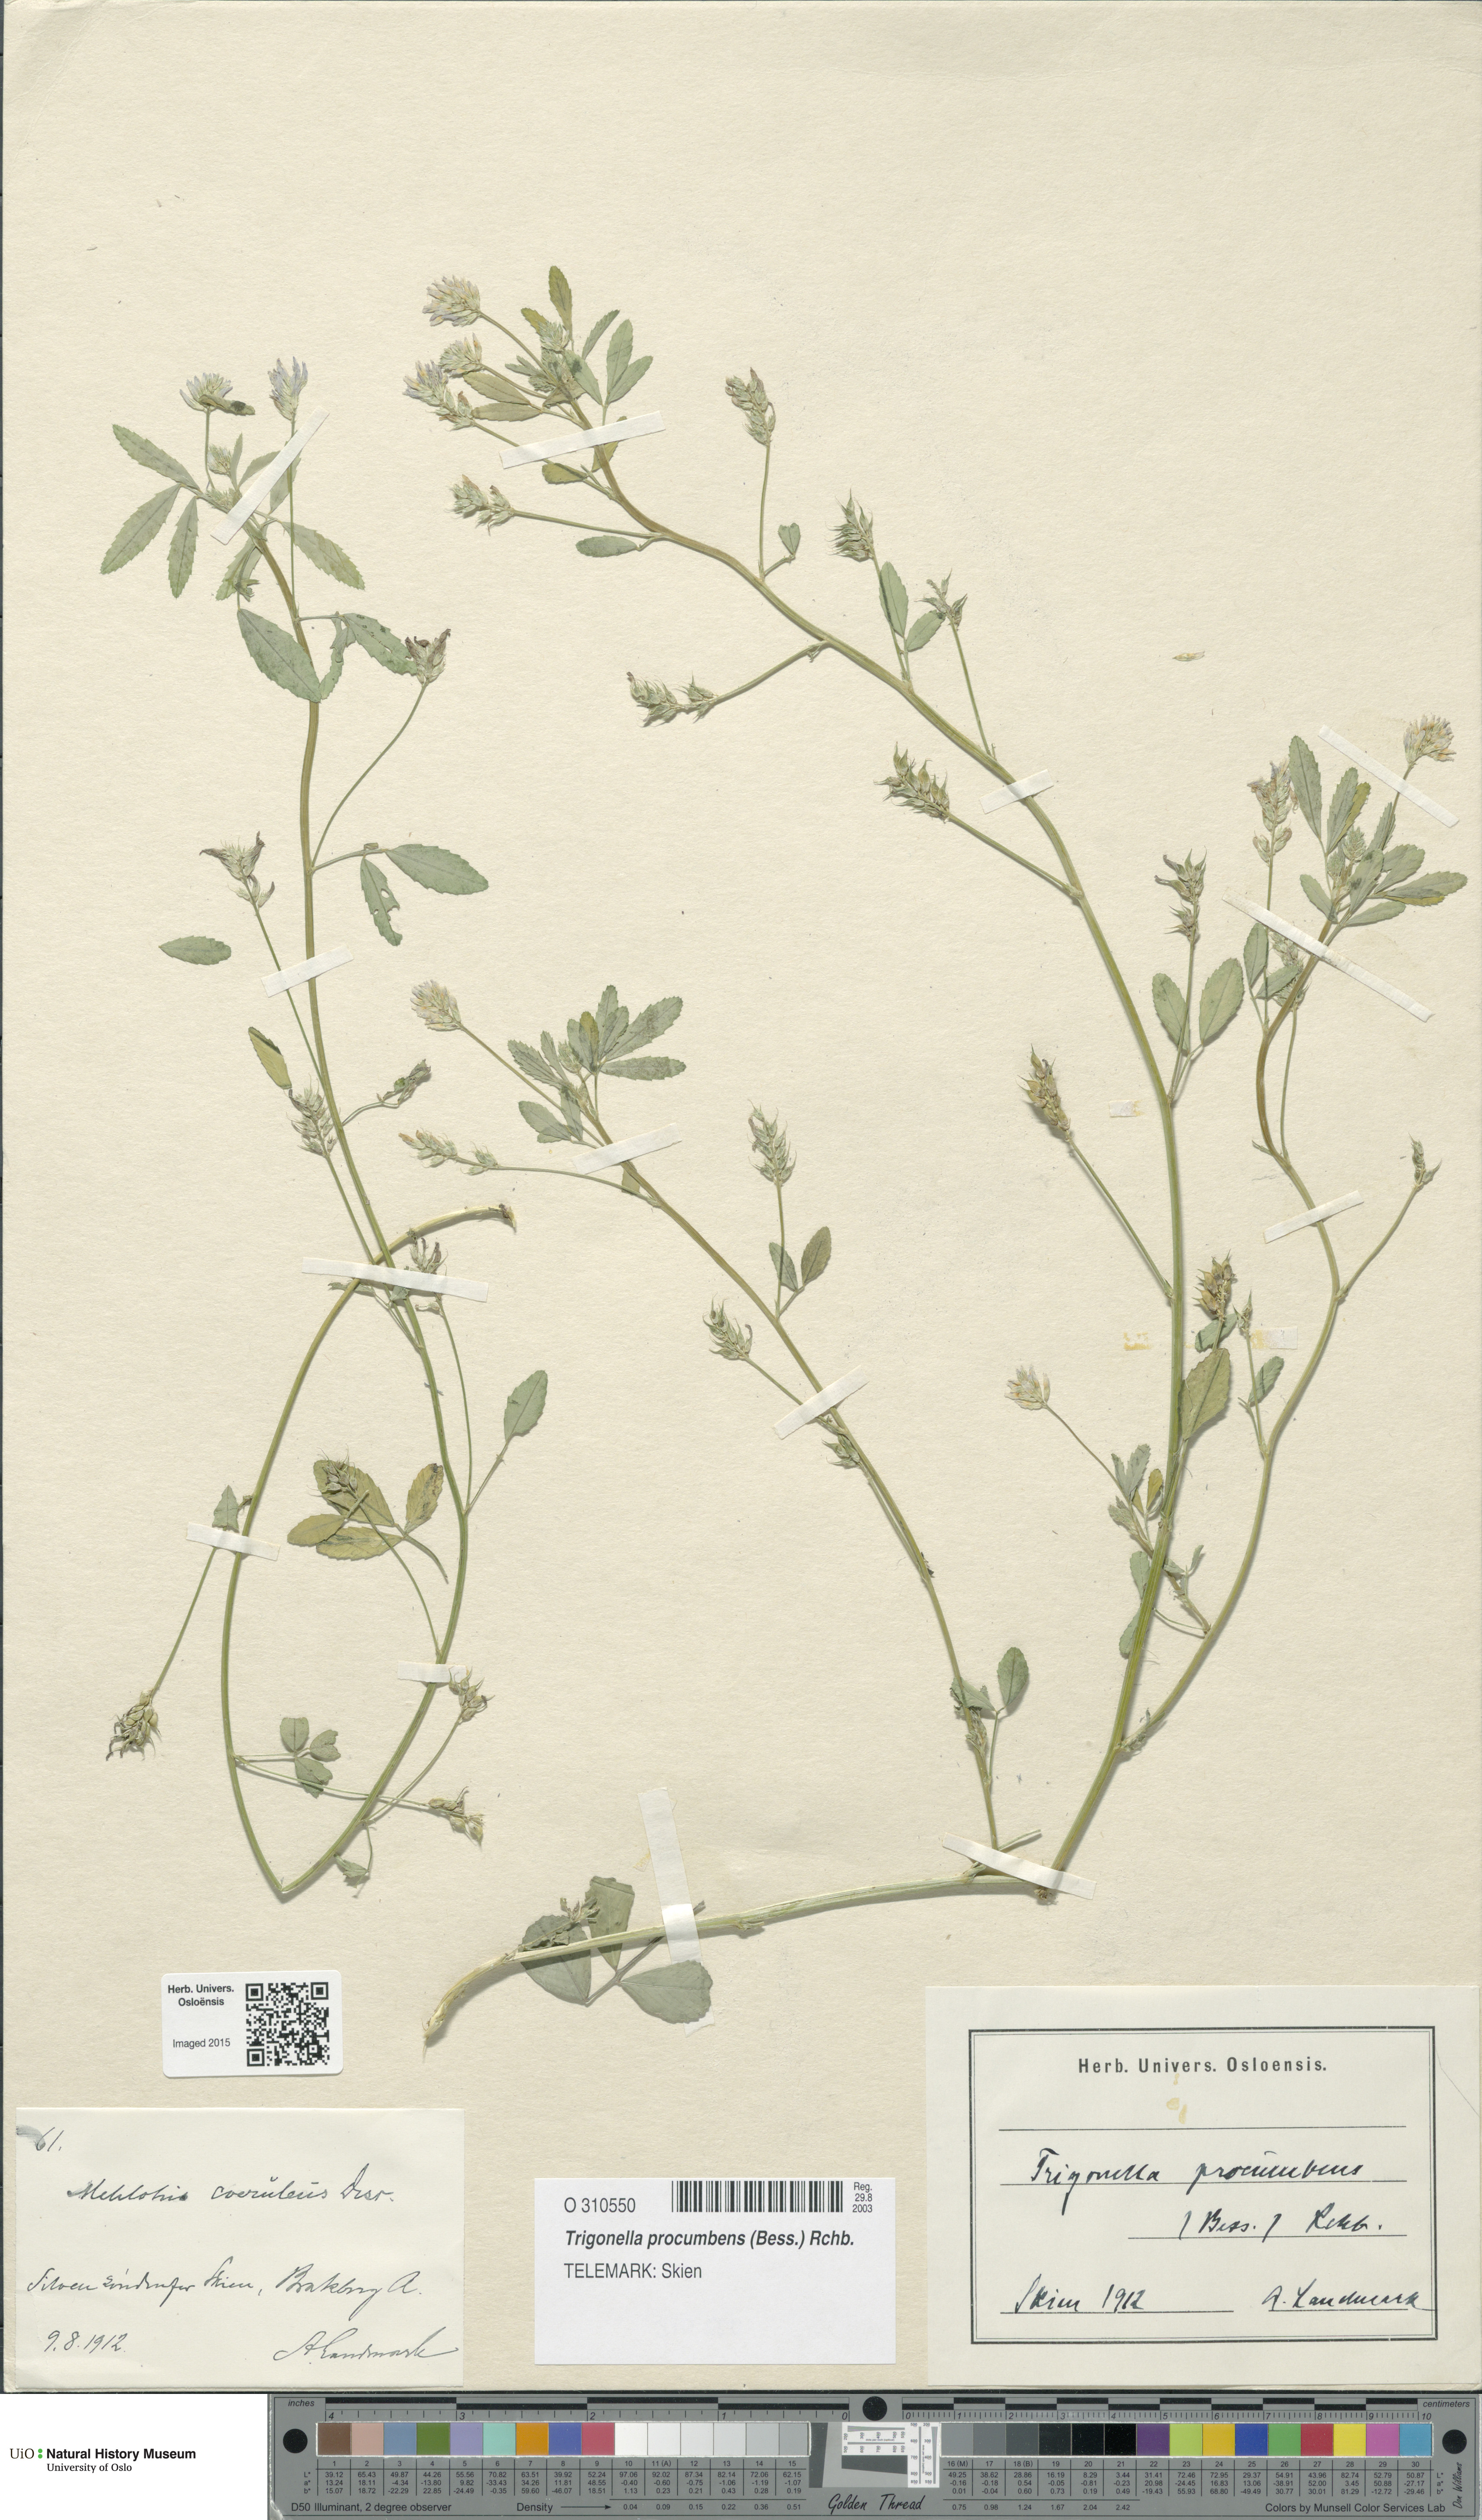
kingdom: Plantae
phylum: Tracheophyta
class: Magnoliopsida
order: Fabales
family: Fabaceae
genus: Trigonella
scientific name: Trigonella procumbens
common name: Trailing fenugreek
